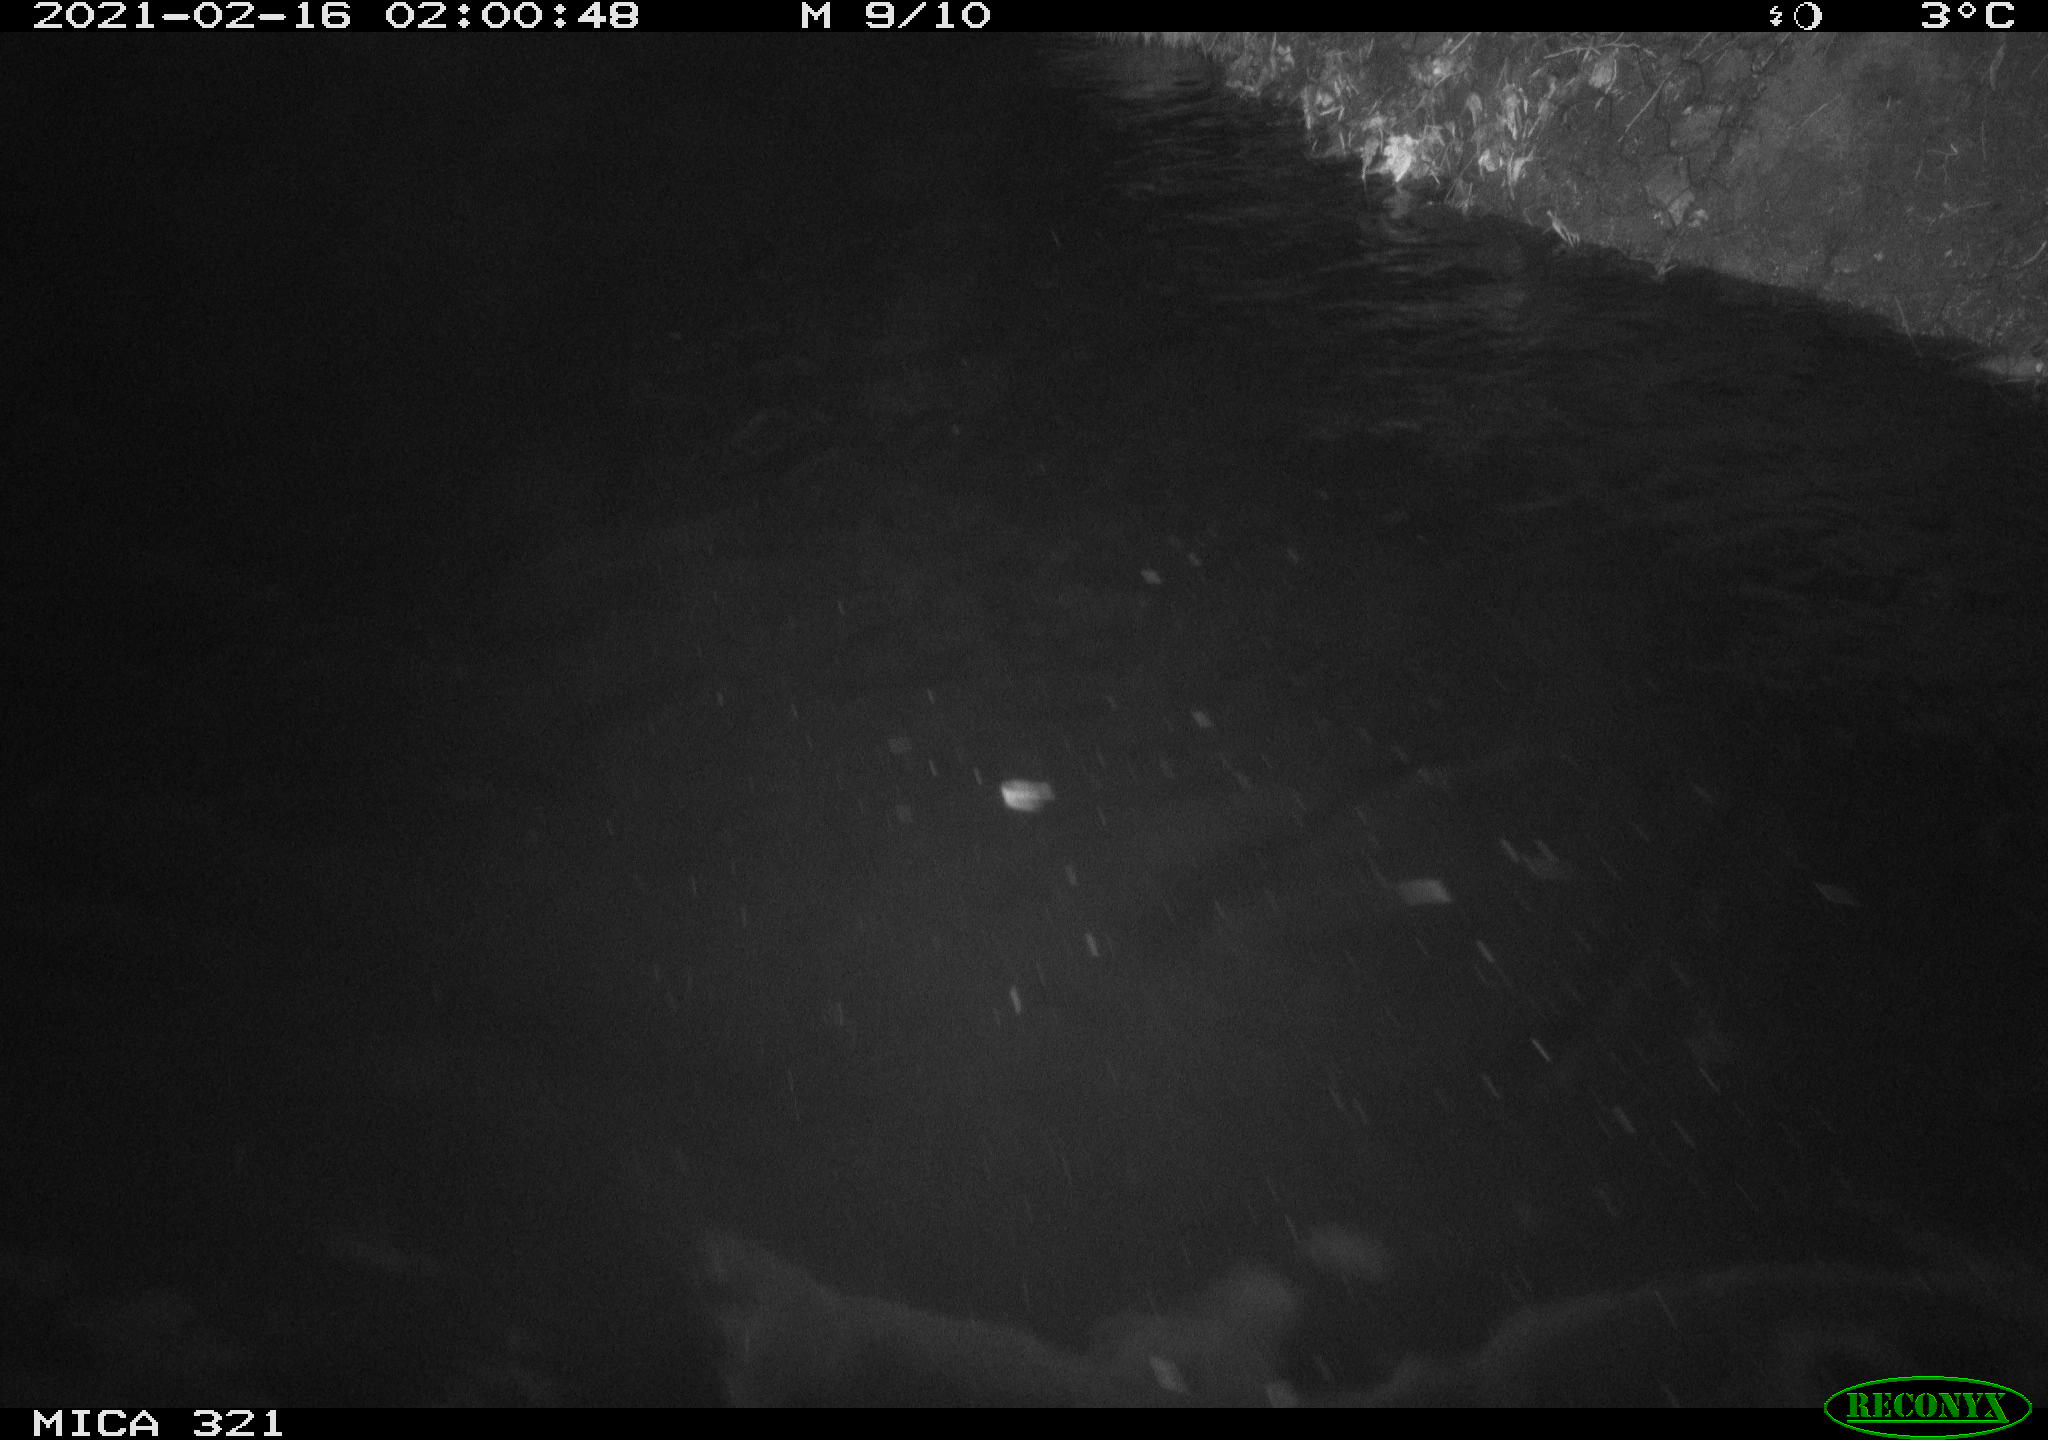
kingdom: Animalia
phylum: Chordata
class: Aves
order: Anseriformes
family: Anatidae
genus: Anas
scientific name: Anas platyrhynchos
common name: Mallard
